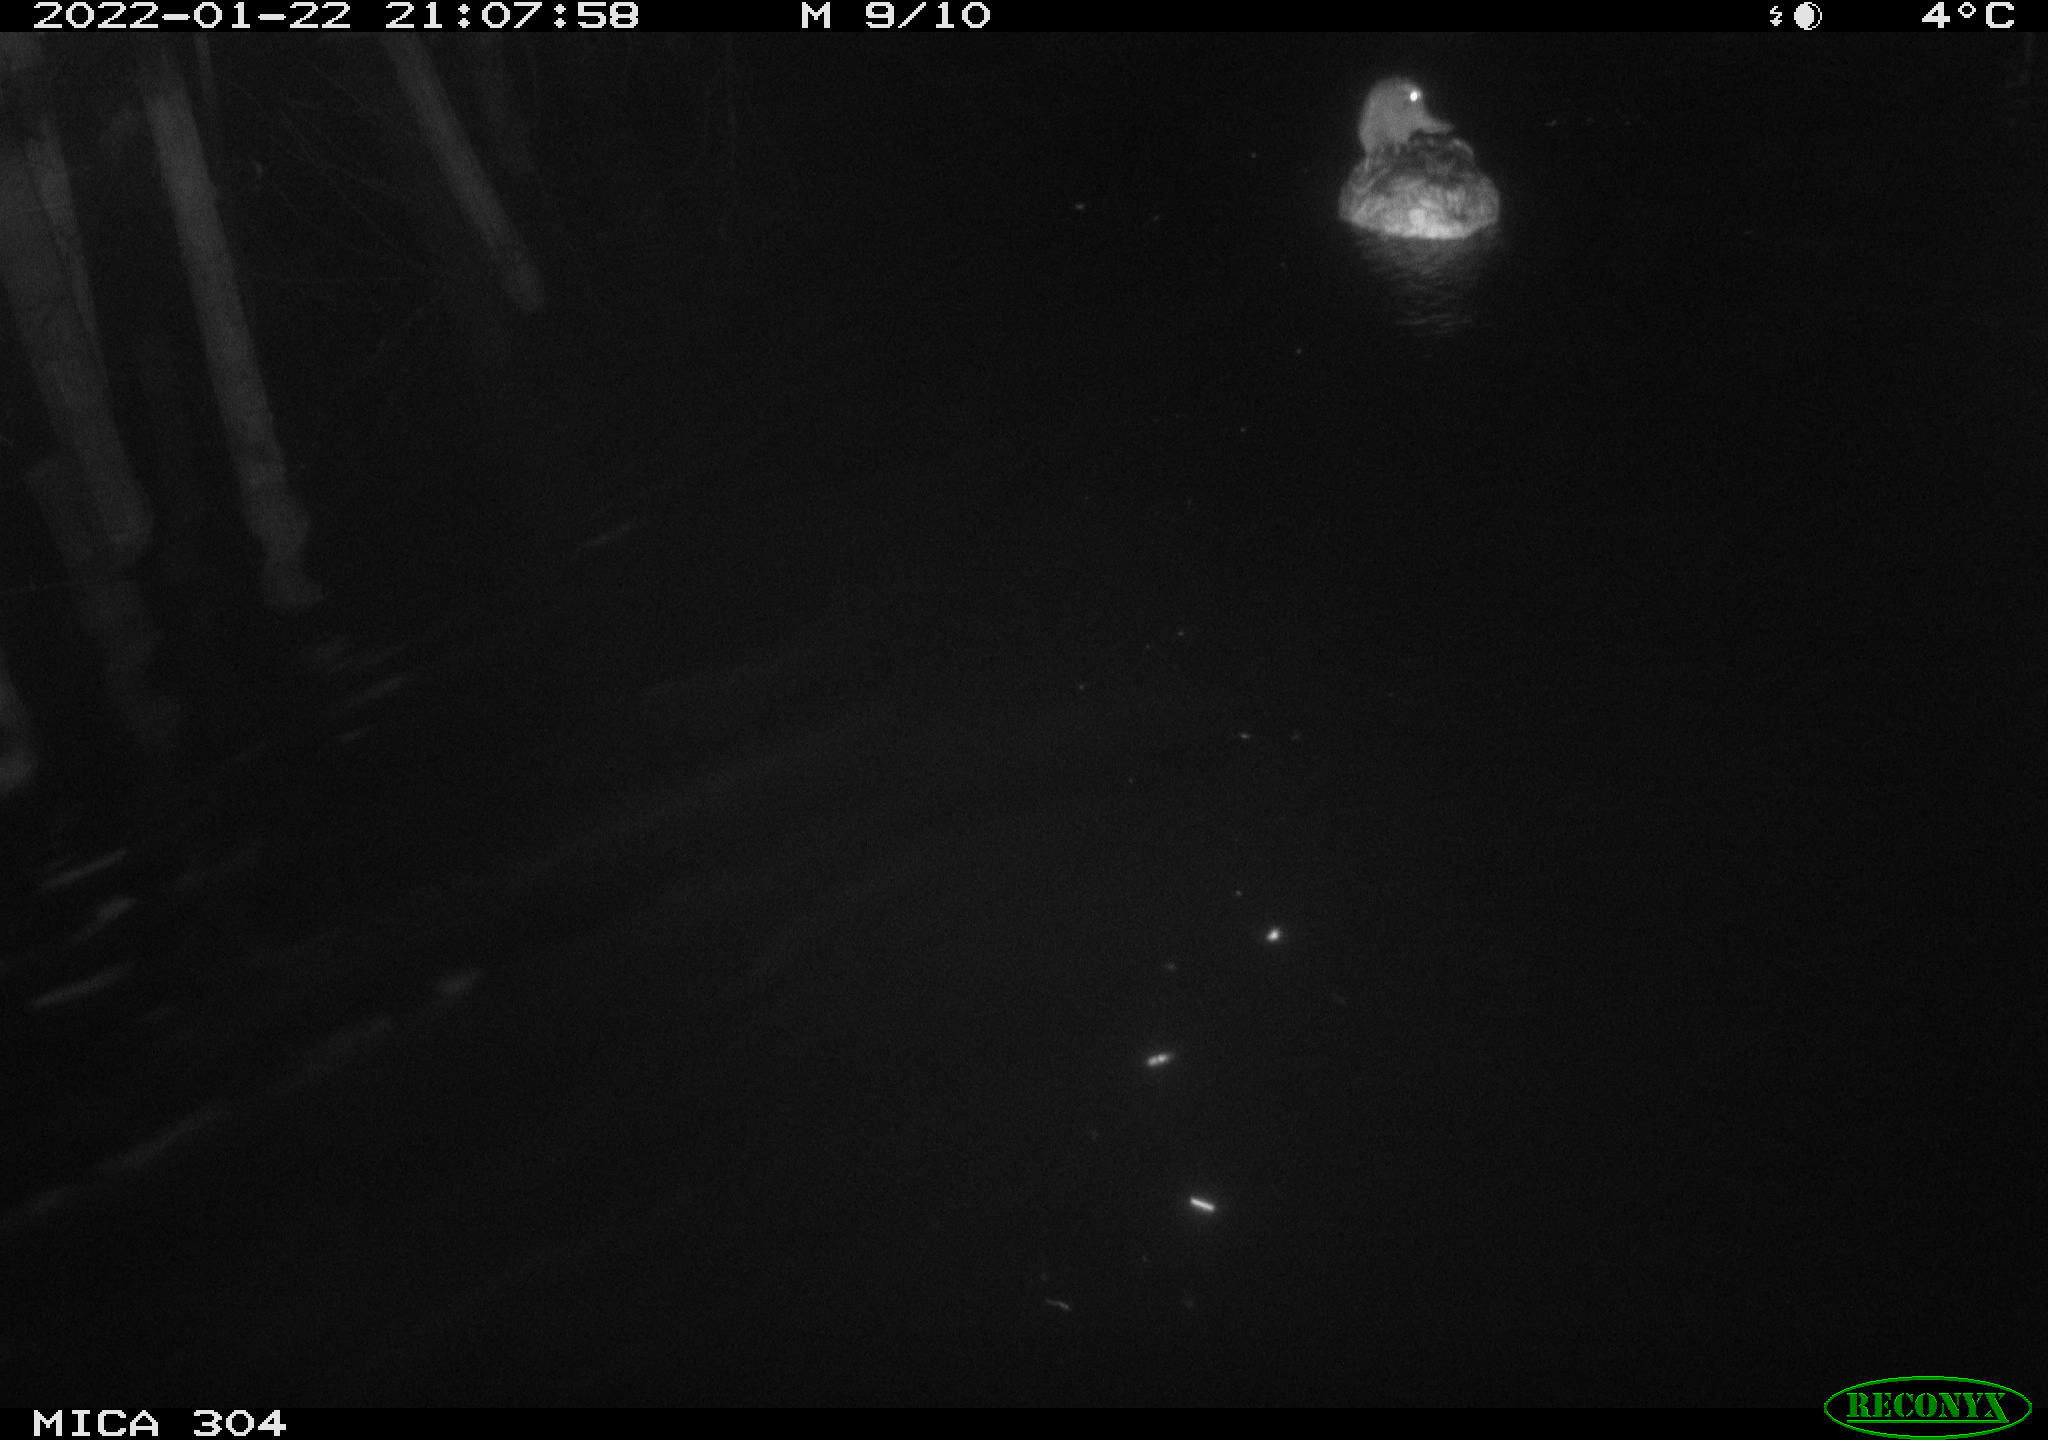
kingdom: Animalia
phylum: Chordata
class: Aves
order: Anseriformes
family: Anatidae
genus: Anas
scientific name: Anas
